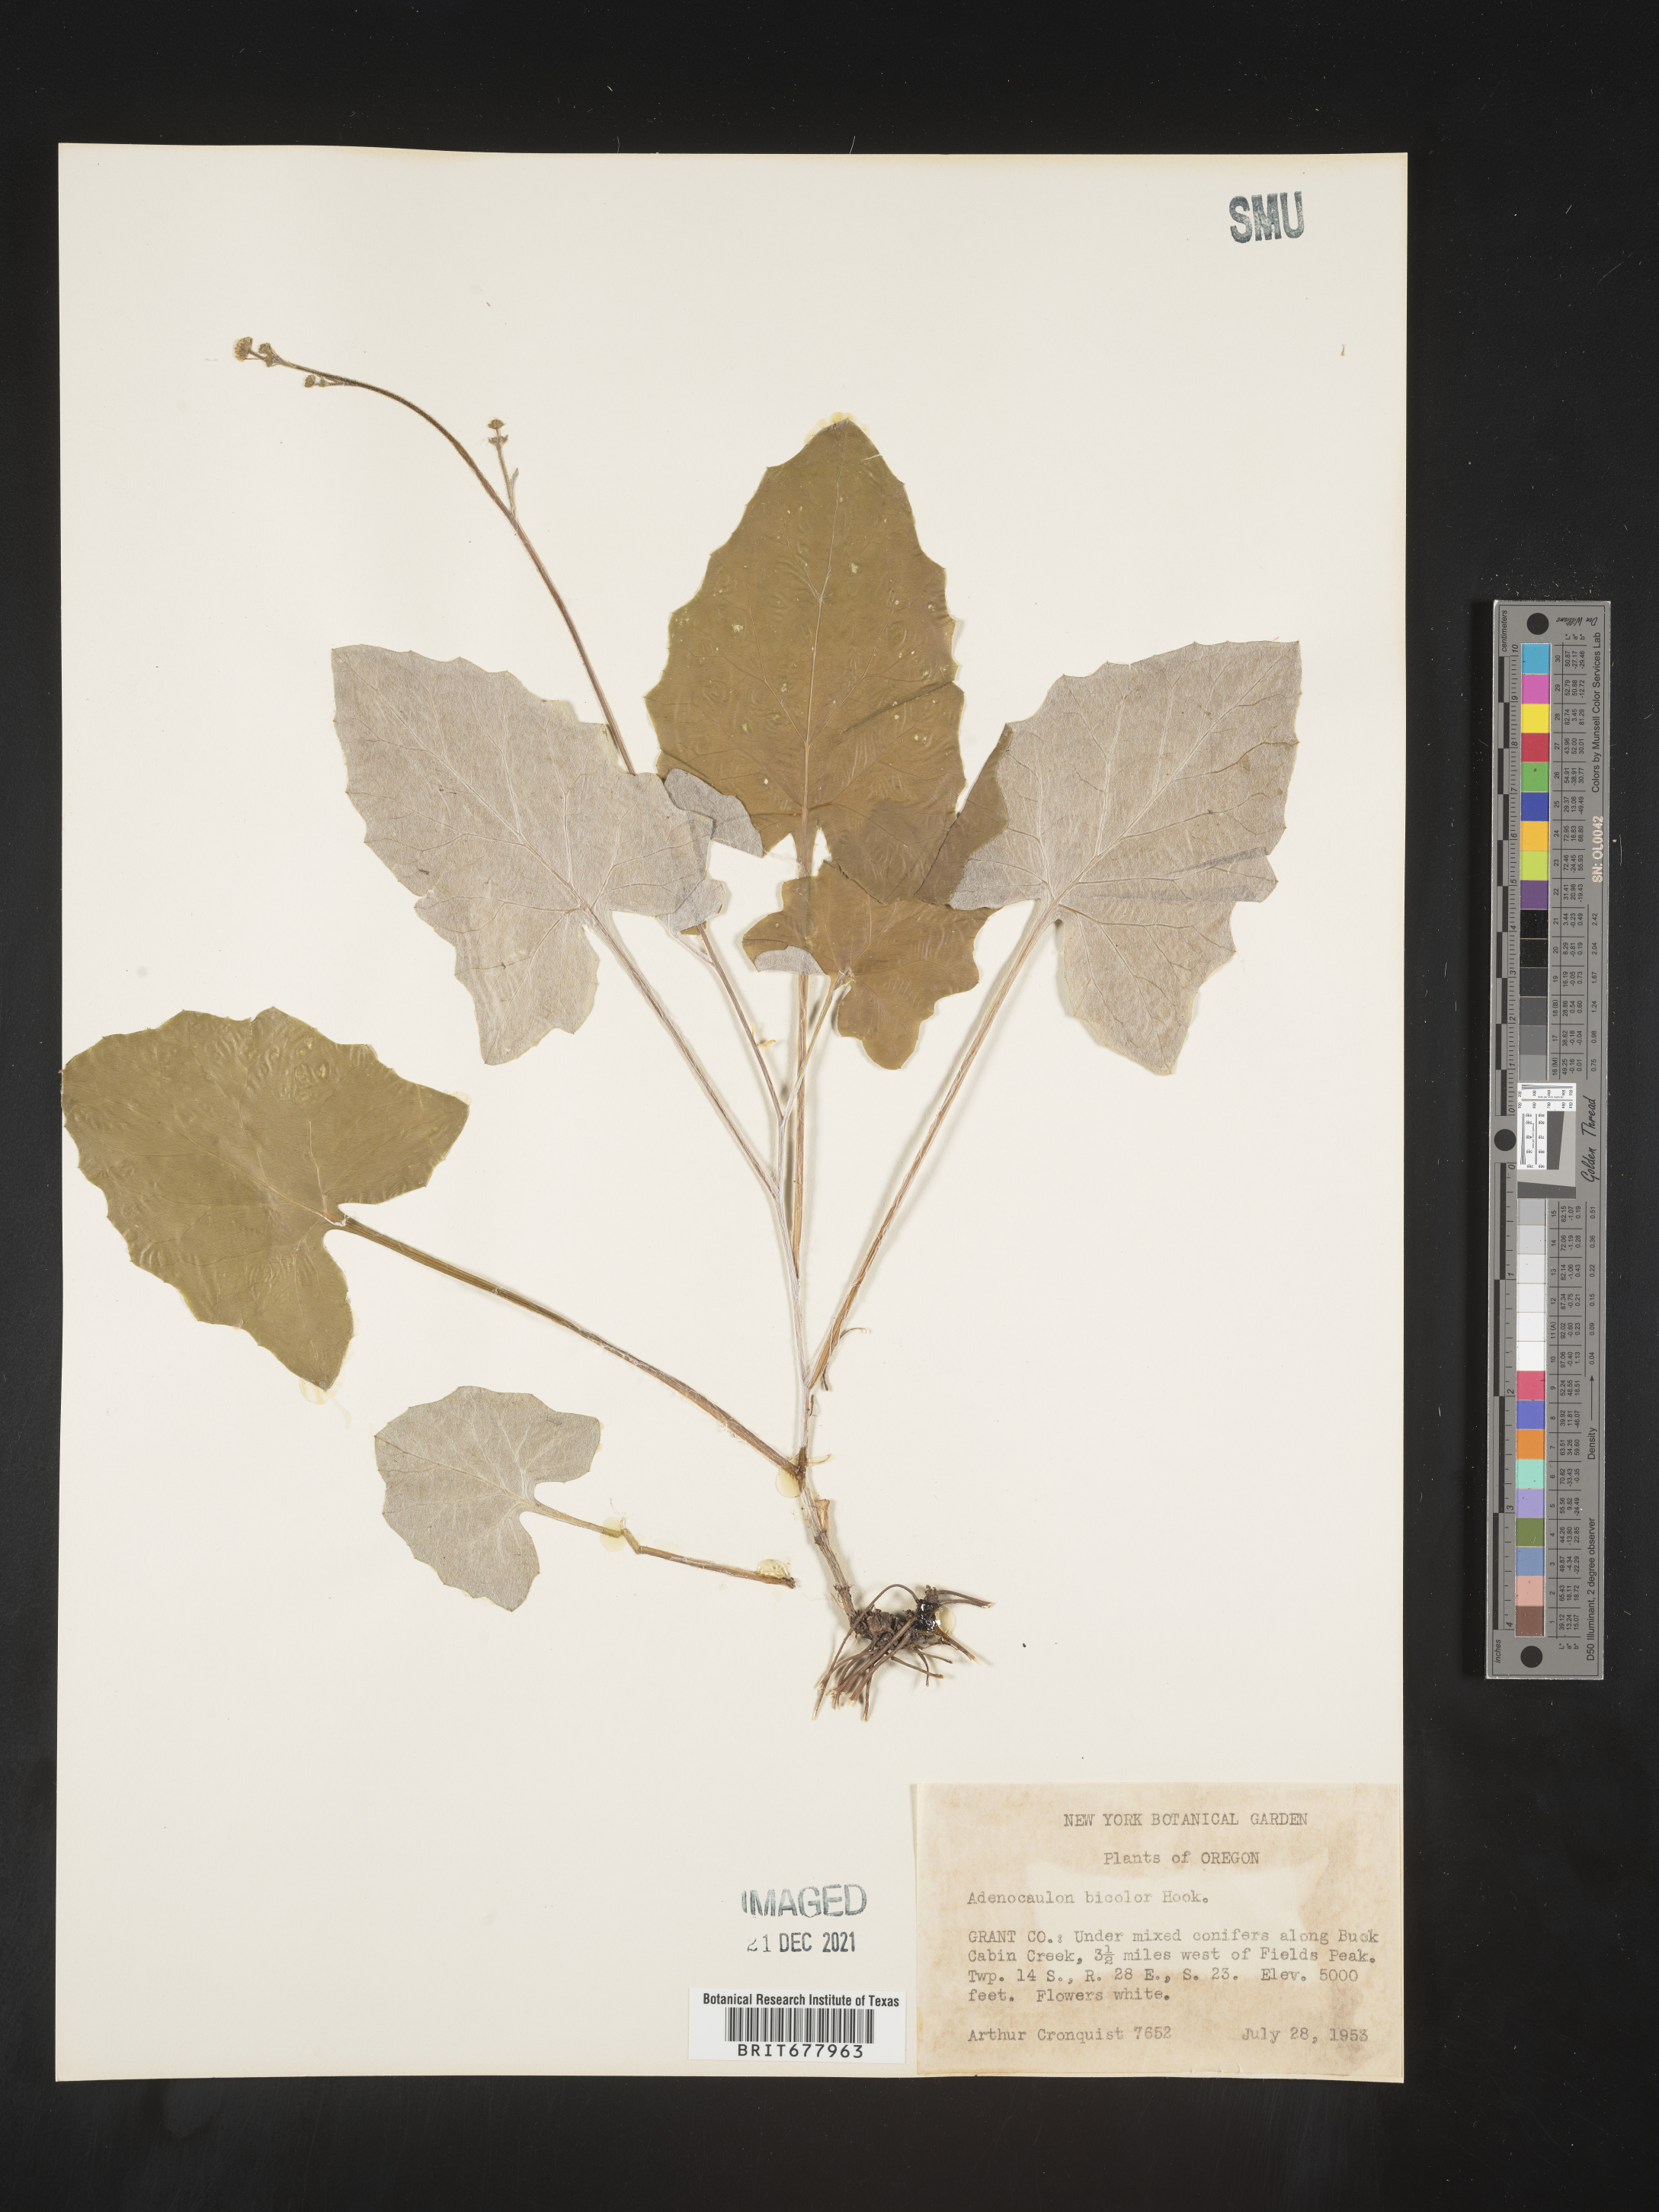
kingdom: Plantae
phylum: Tracheophyta
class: Magnoliopsida
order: Asterales
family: Asteraceae
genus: Adenocaulon
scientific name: Adenocaulon
